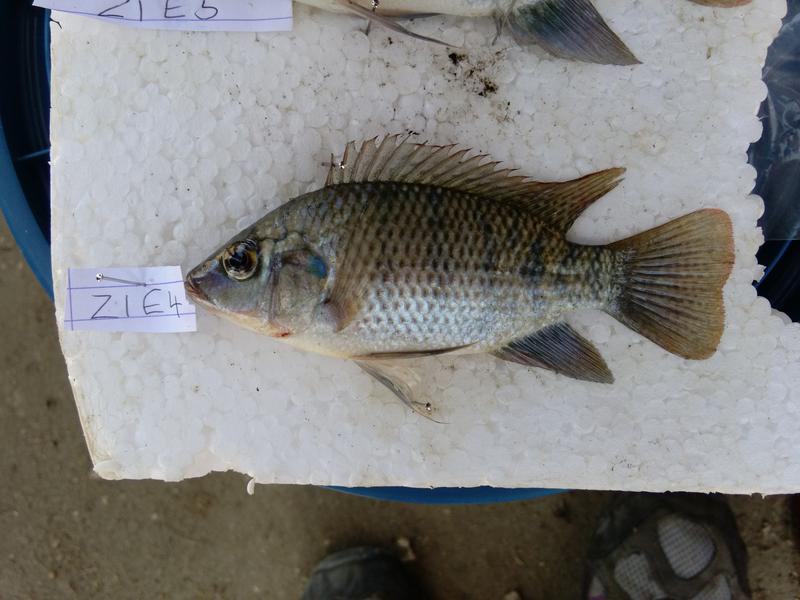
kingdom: Animalia
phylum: Chordata
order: Perciformes
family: Cichlidae
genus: Oreochromis
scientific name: Oreochromis urolepis
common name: Wami tilapia
